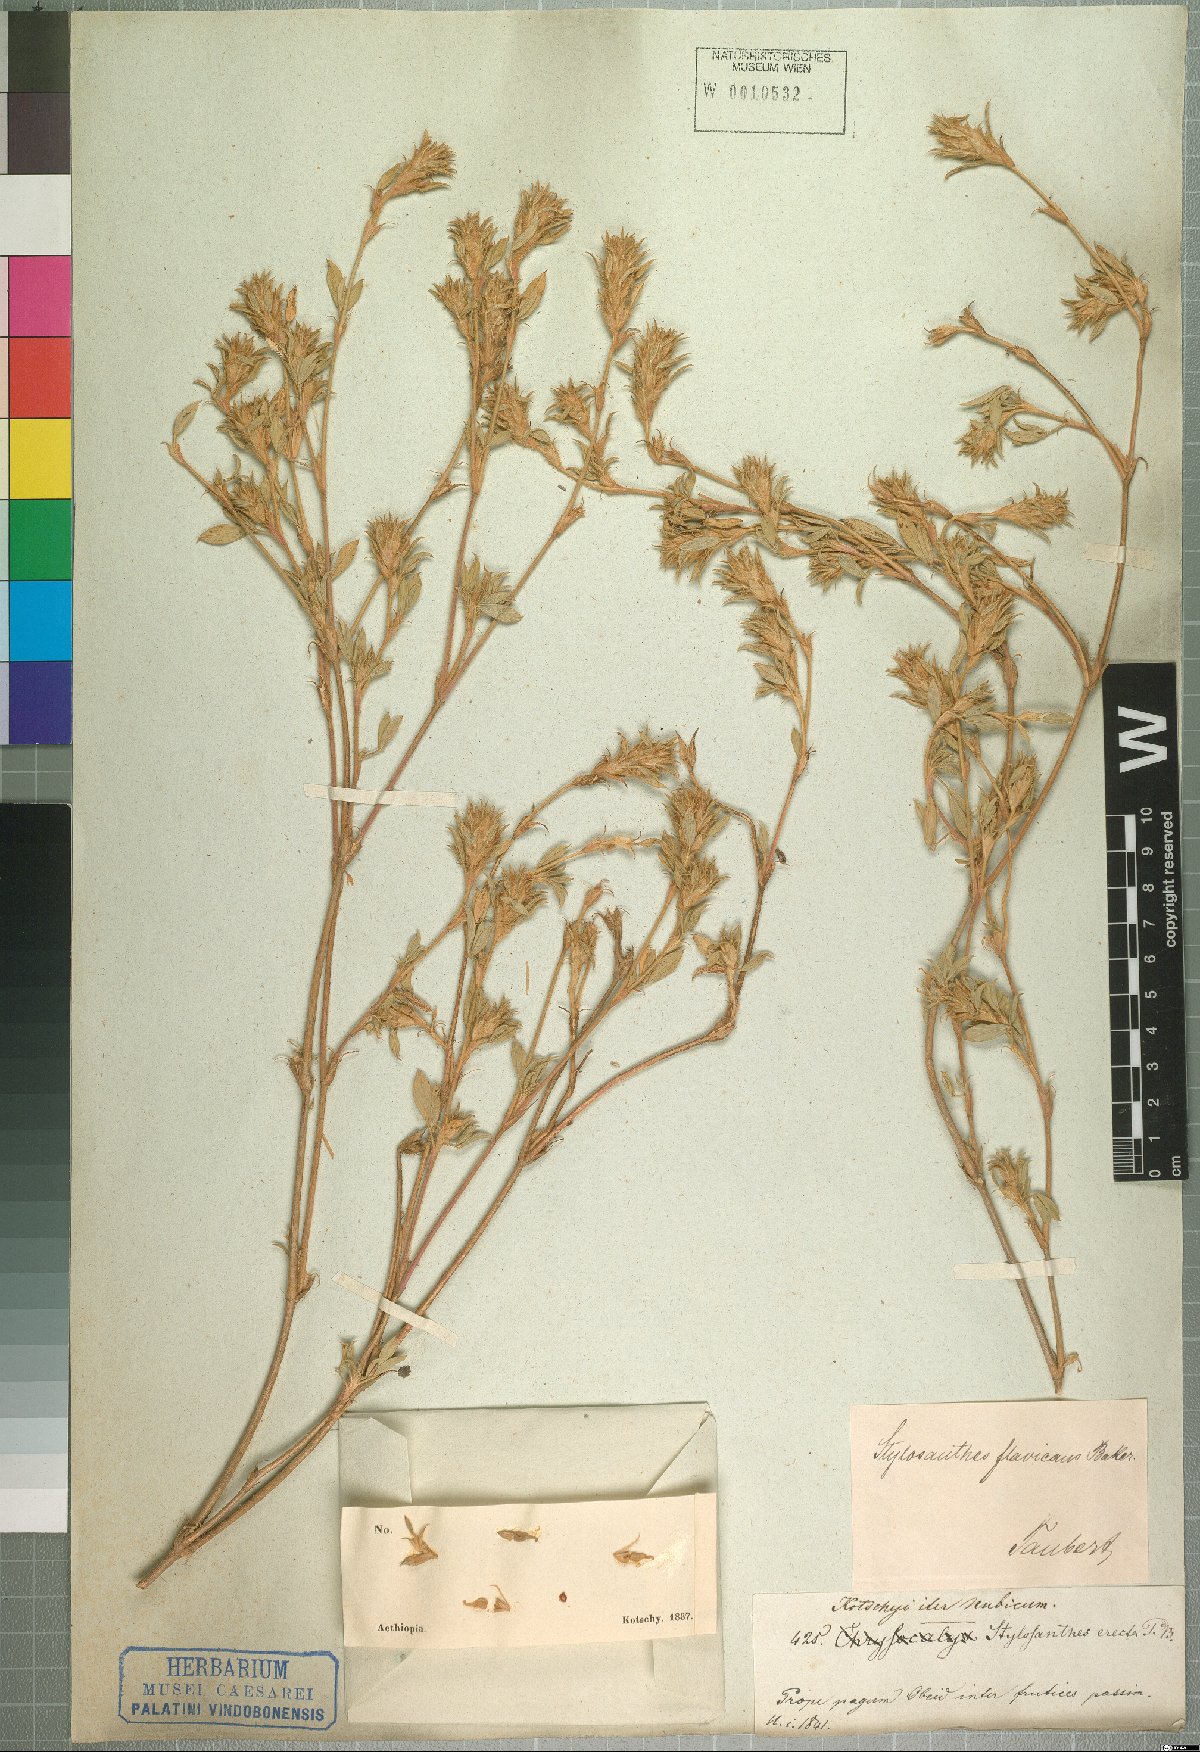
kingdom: Plantae
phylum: Tracheophyta
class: Magnoliopsida
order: Fabales
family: Fabaceae
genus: Stylosanthes
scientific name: Stylosanthes fruticosa
